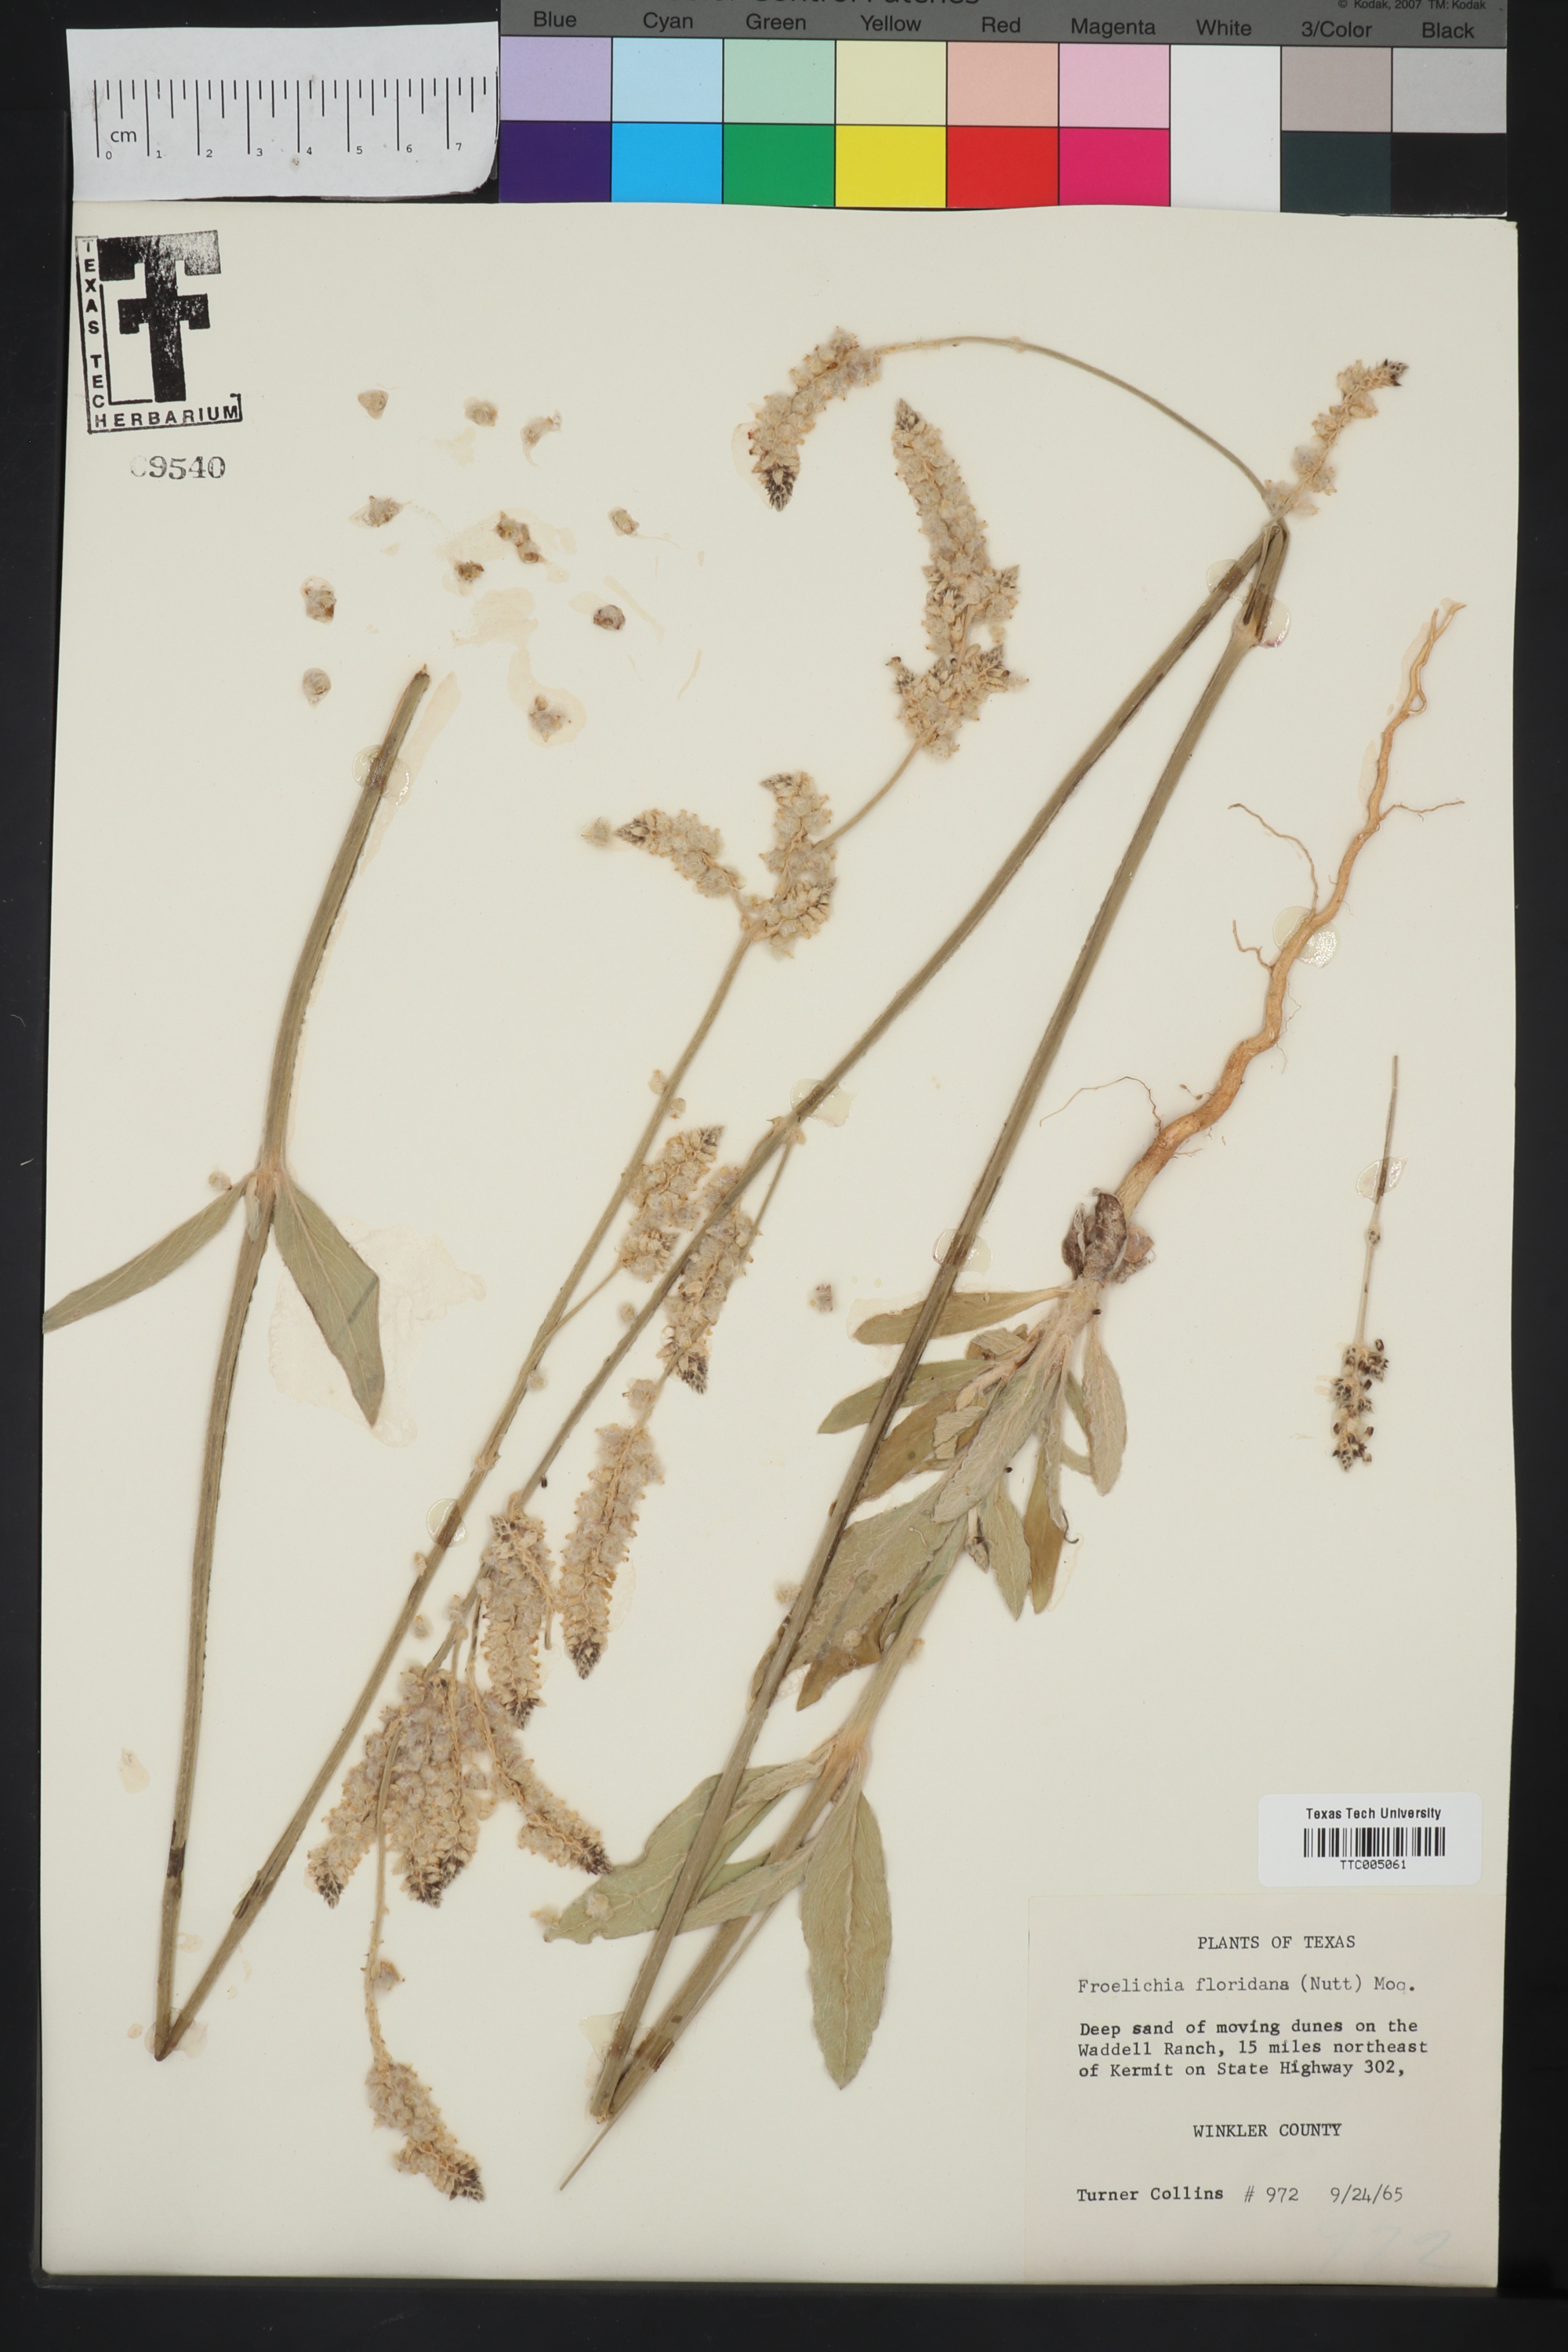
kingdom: Plantae
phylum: Tracheophyta
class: Magnoliopsida
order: Caryophyllales
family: Amaranthaceae
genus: Froelichia
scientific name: Froelichia floridana
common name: Florida snake-cotton
